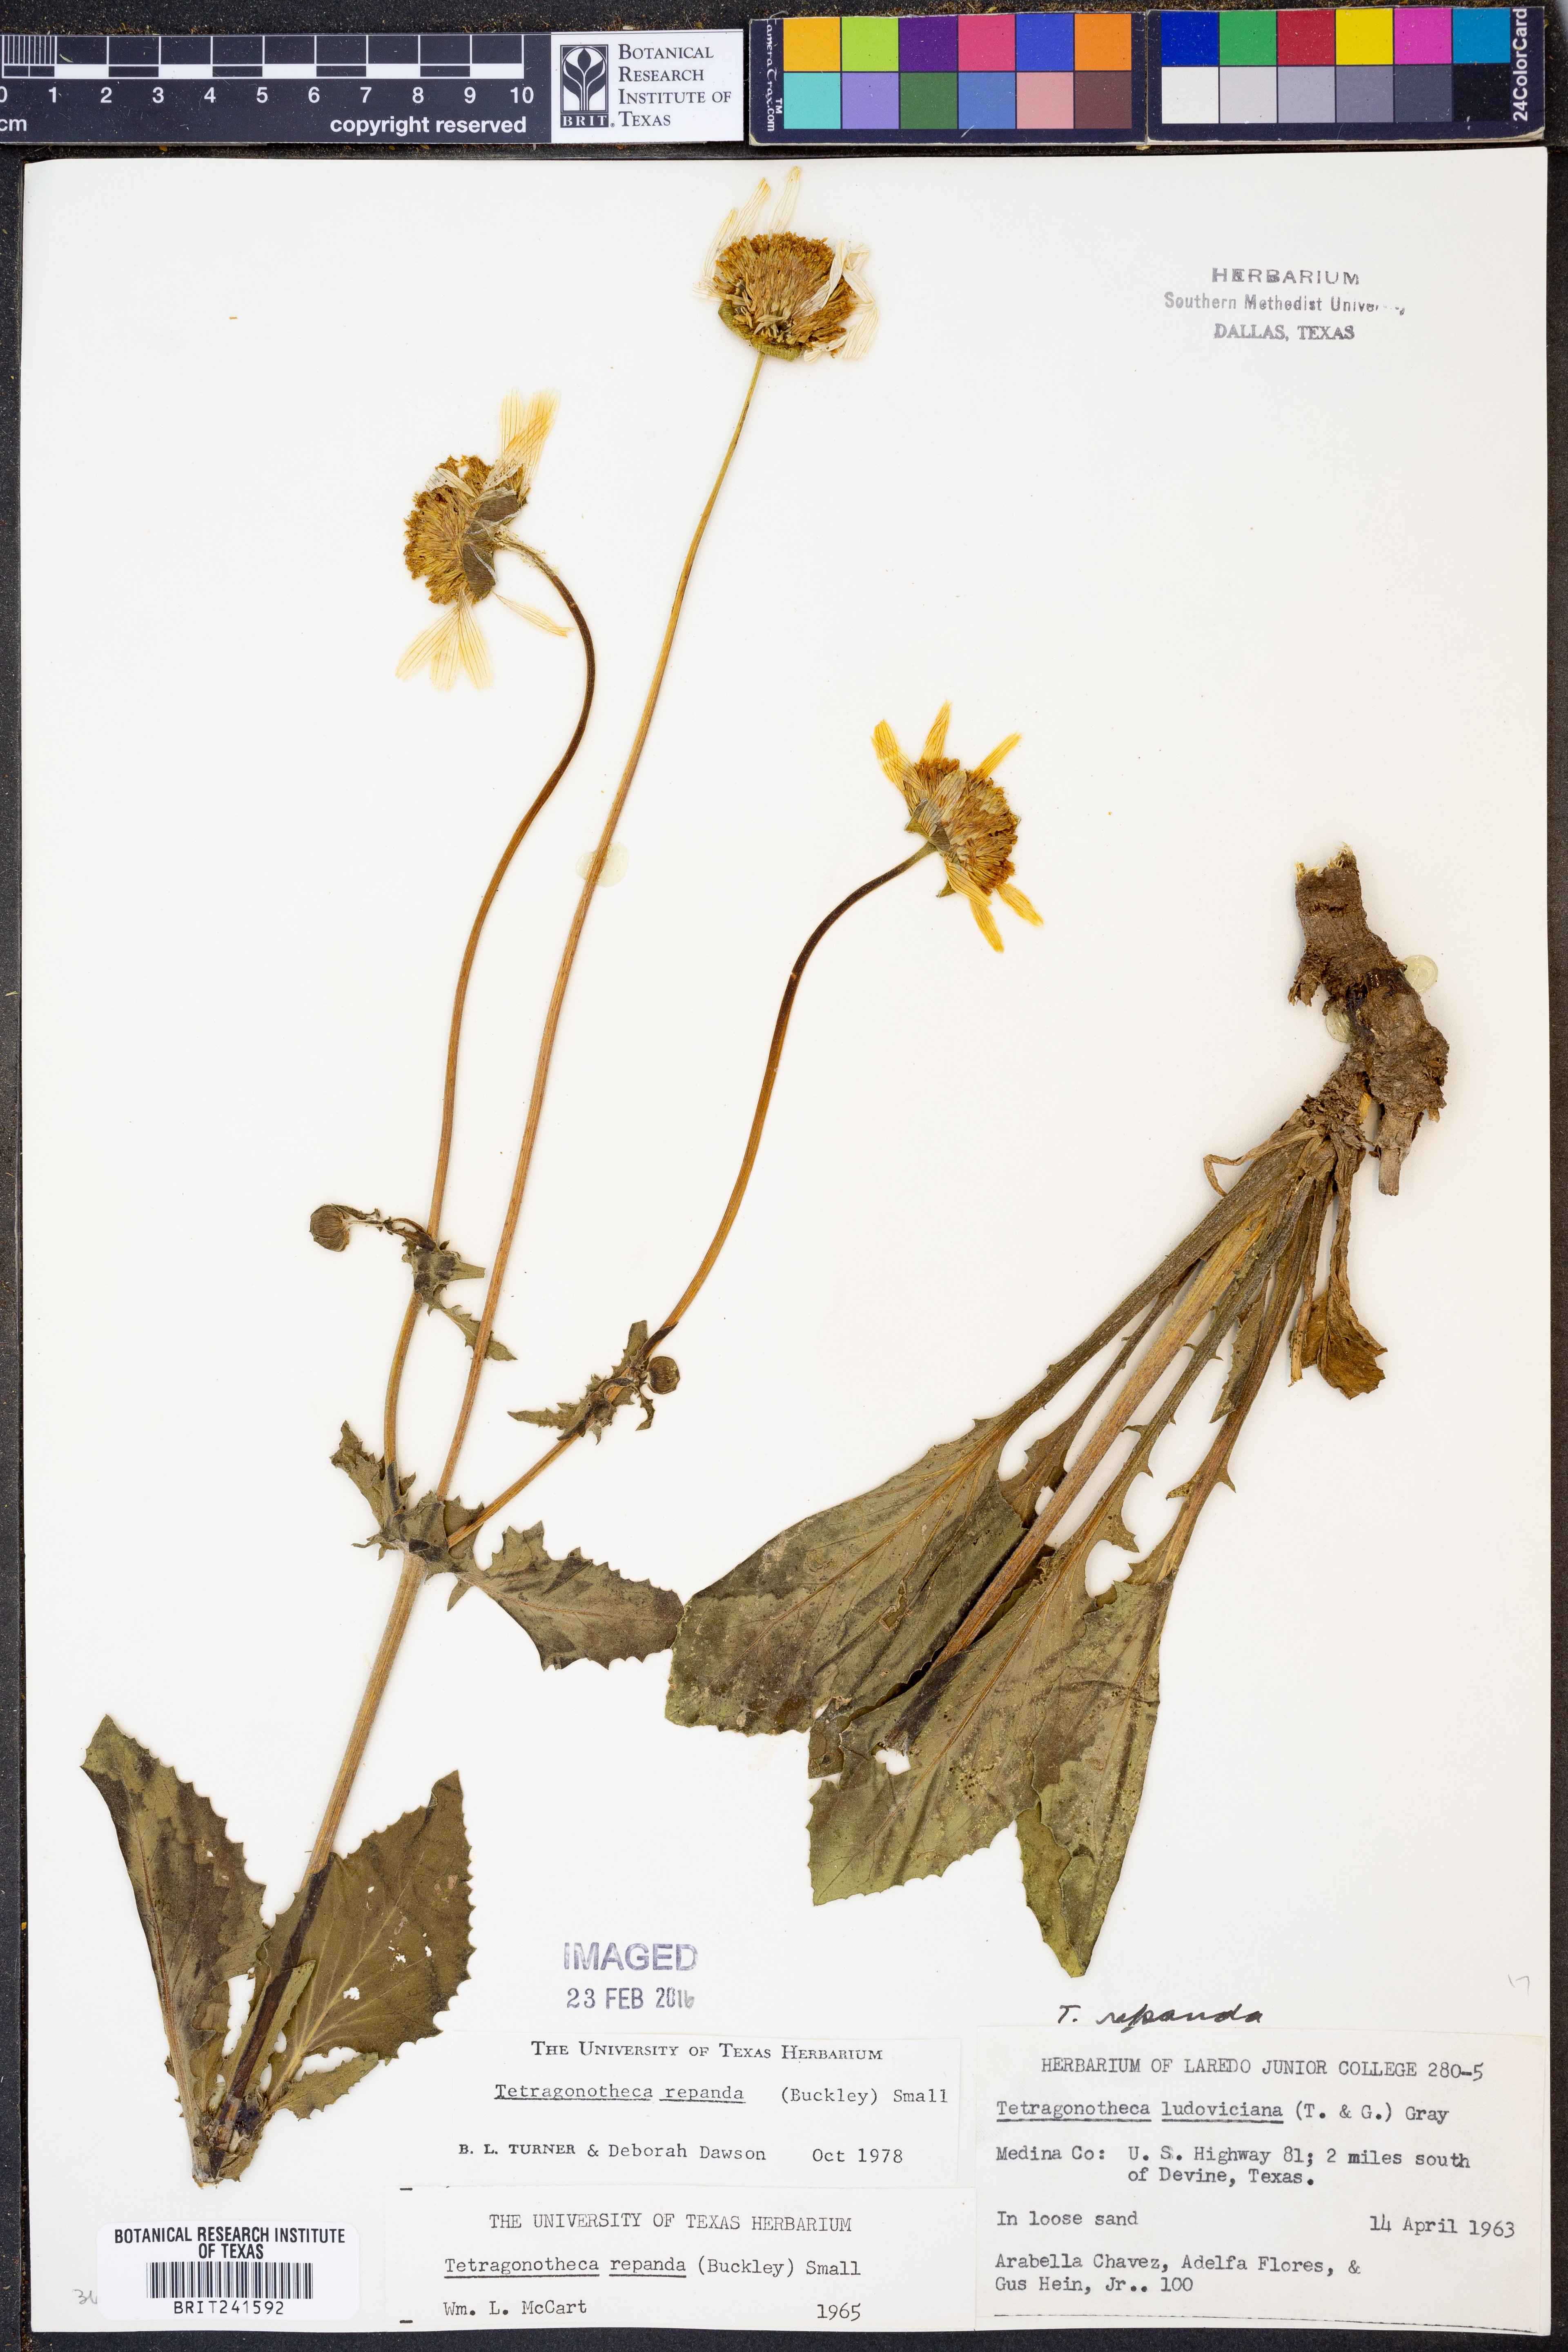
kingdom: Plantae
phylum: Tracheophyta
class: Magnoliopsida
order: Asterales
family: Asteraceae
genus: Tetragonotheca
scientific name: Tetragonotheca repanda
